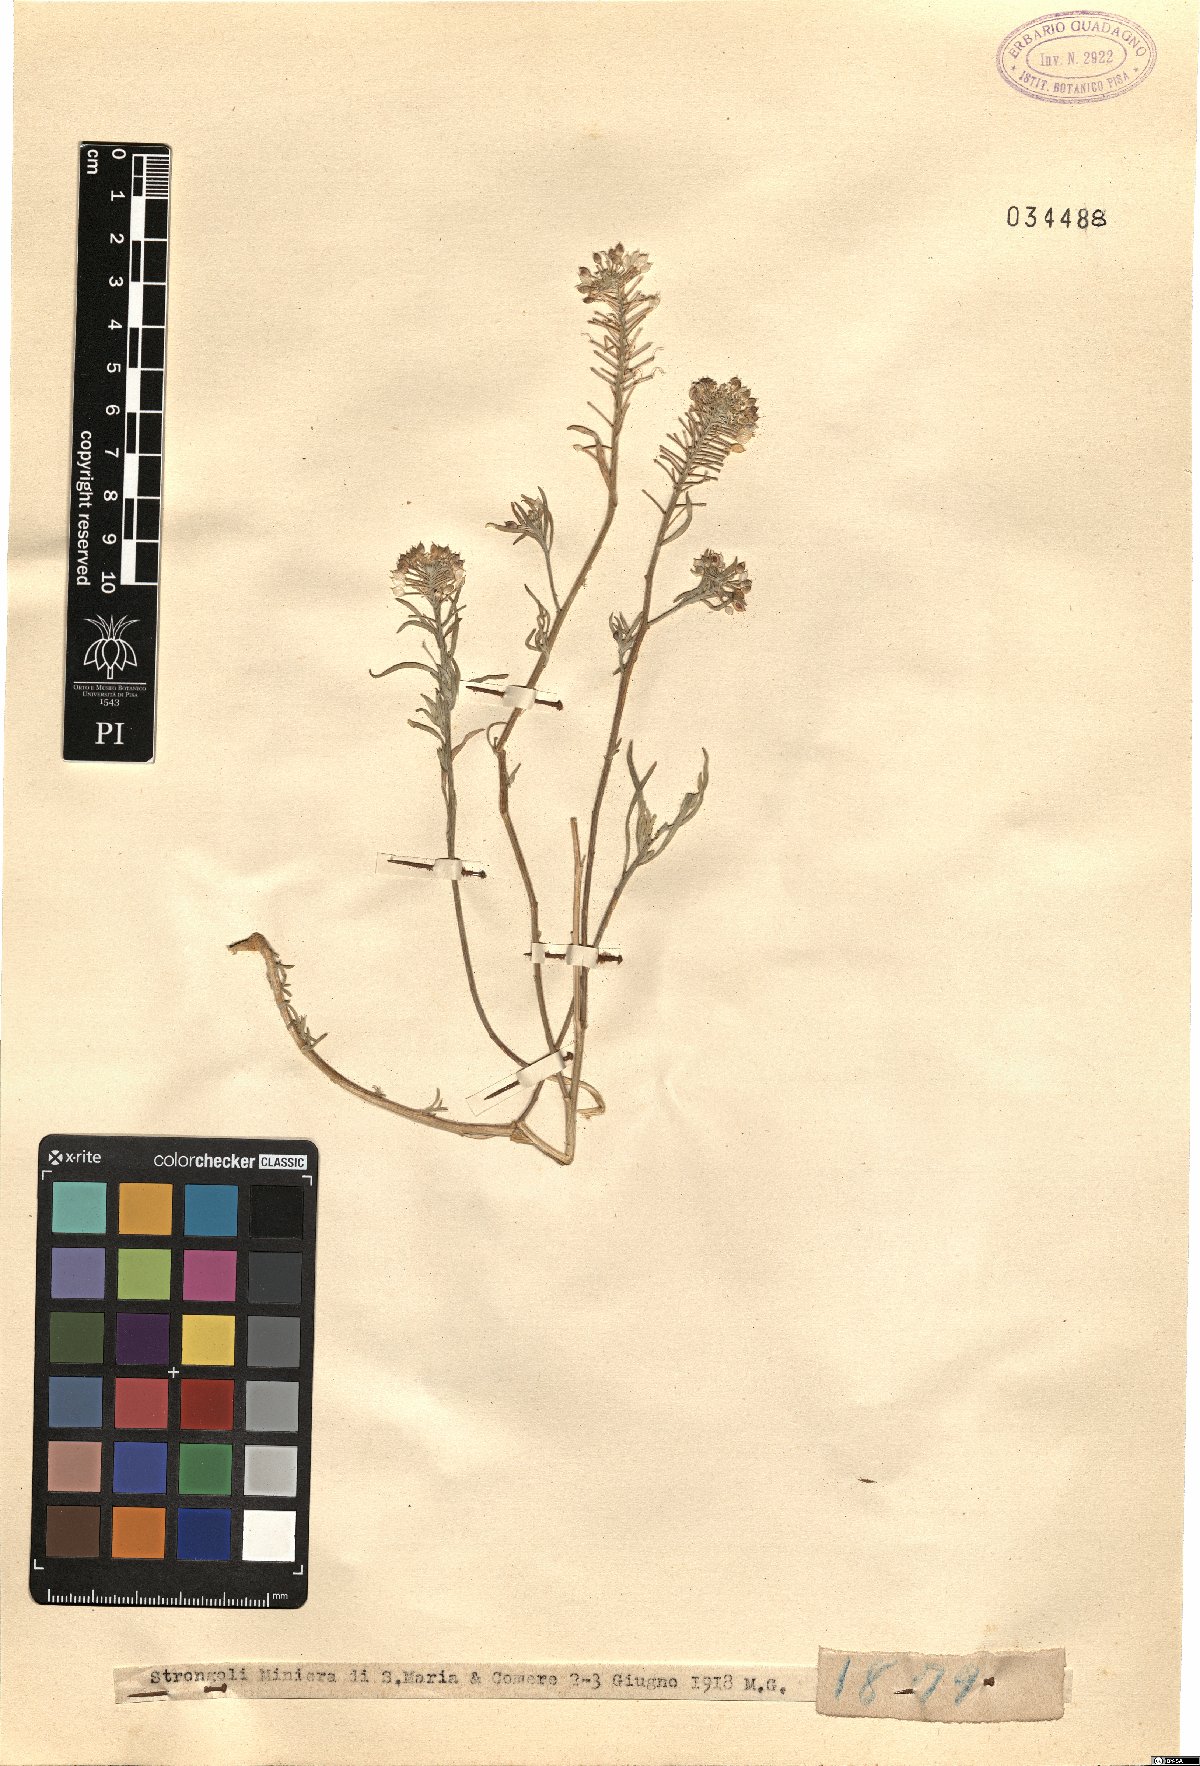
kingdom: Plantae
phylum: Tracheophyta
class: Magnoliopsida
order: Brassicales
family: Brassicaceae
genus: Alyssum
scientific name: Alyssum
